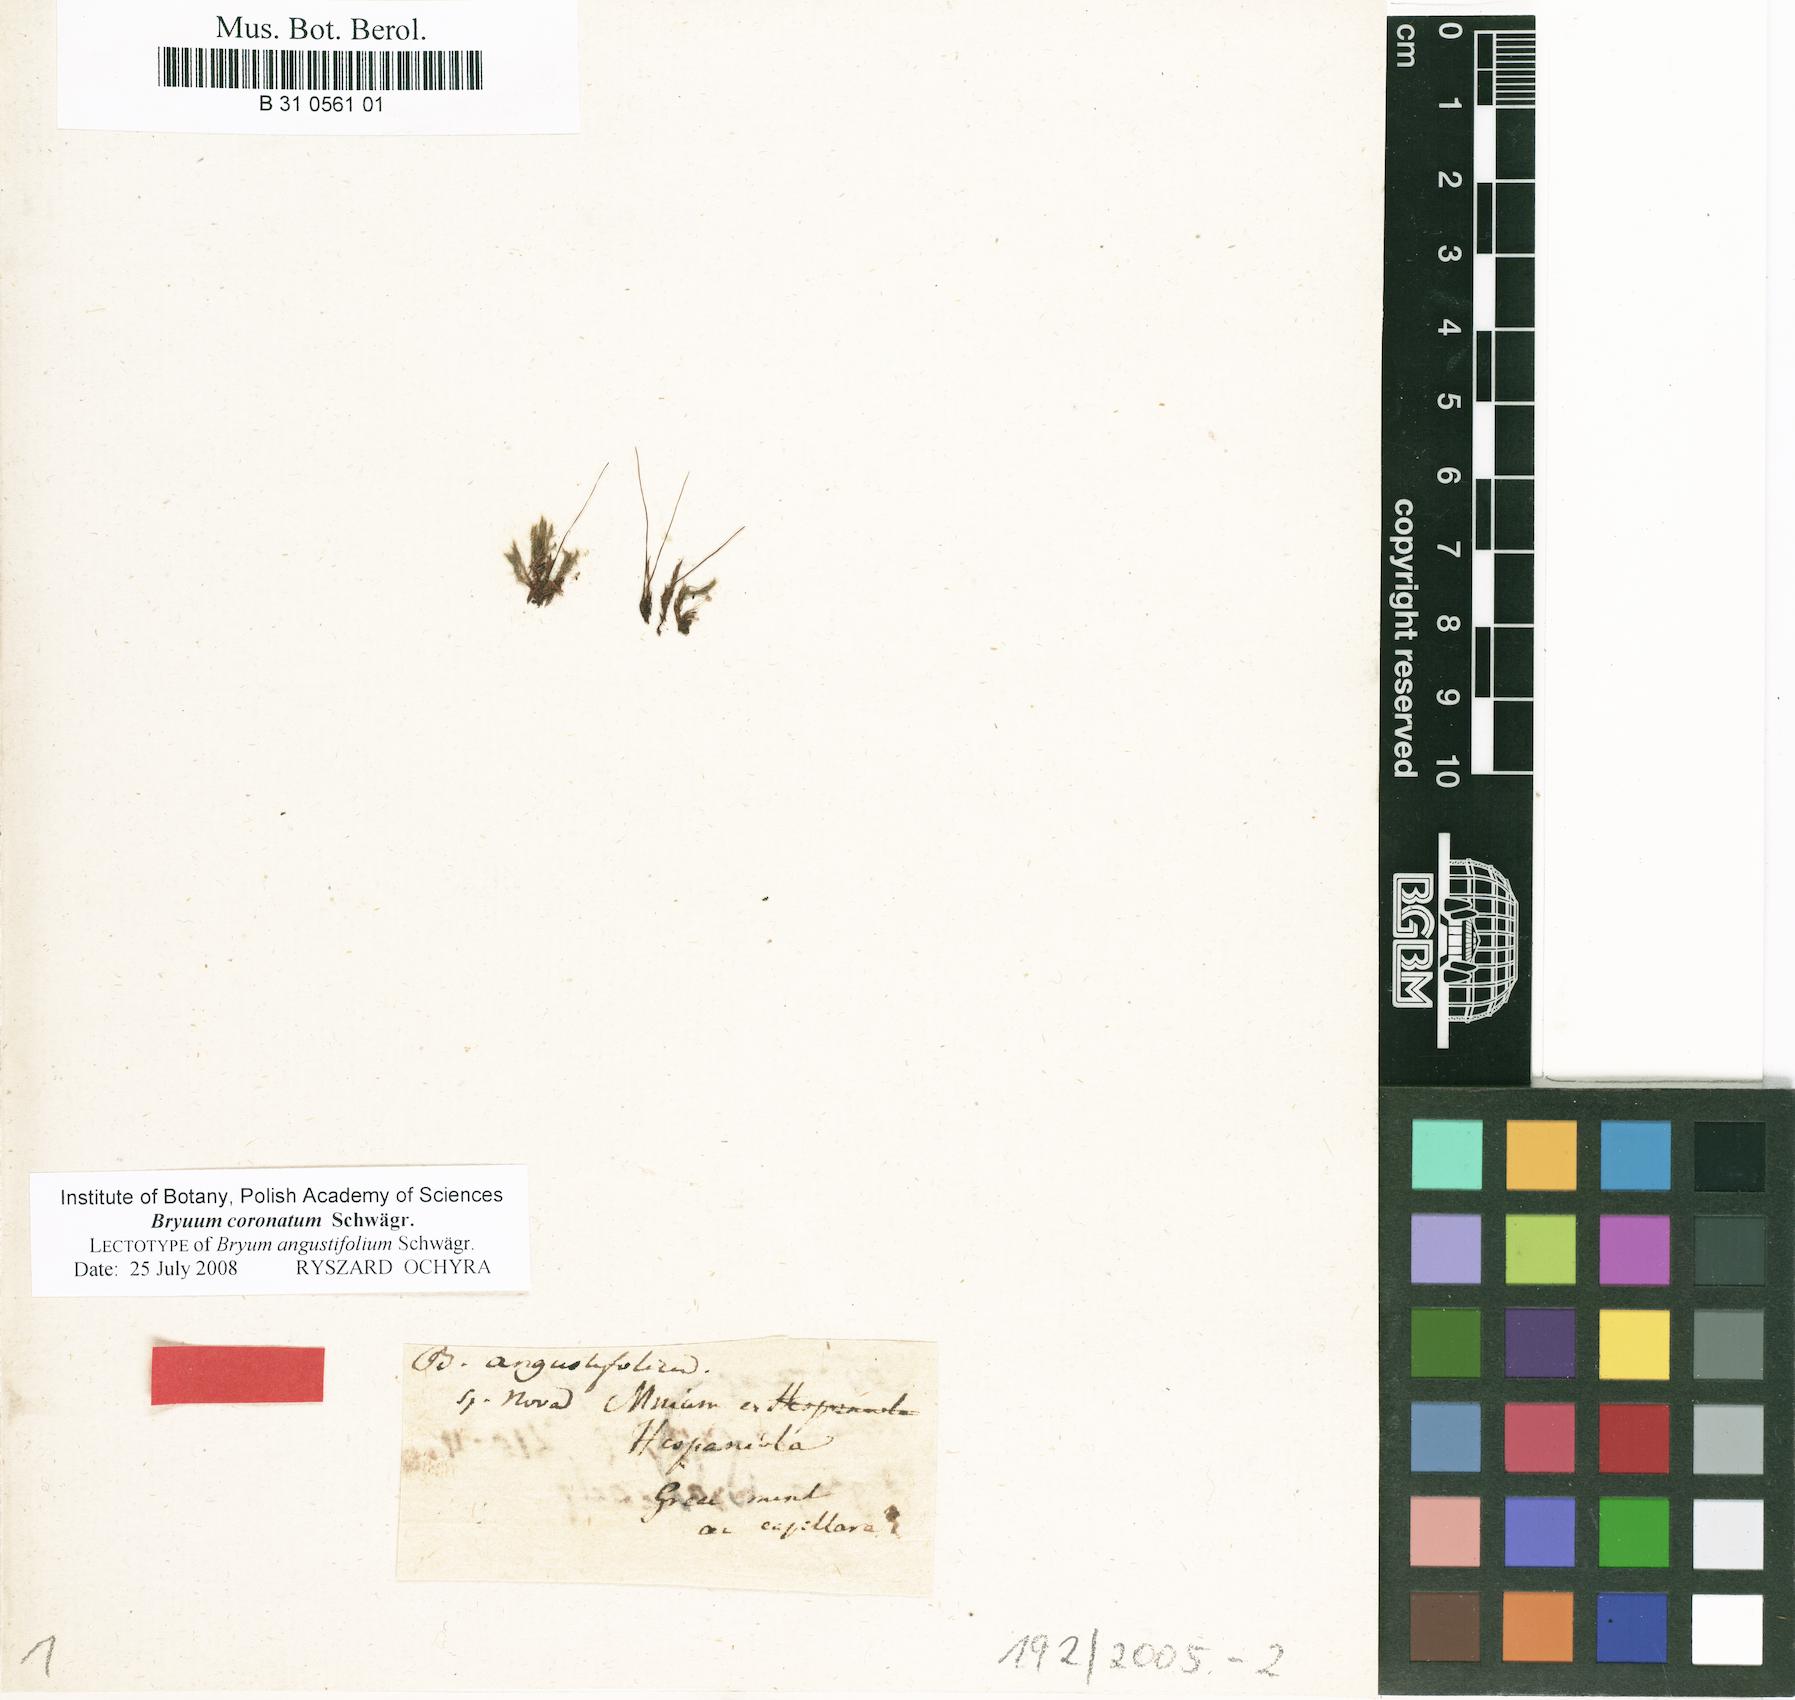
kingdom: Plantae
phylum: Bryophyta
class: Bryopsida
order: Bryales
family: Bryaceae
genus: Gemmabryum
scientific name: Gemmabryum caespiticium
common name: Handbell moss
